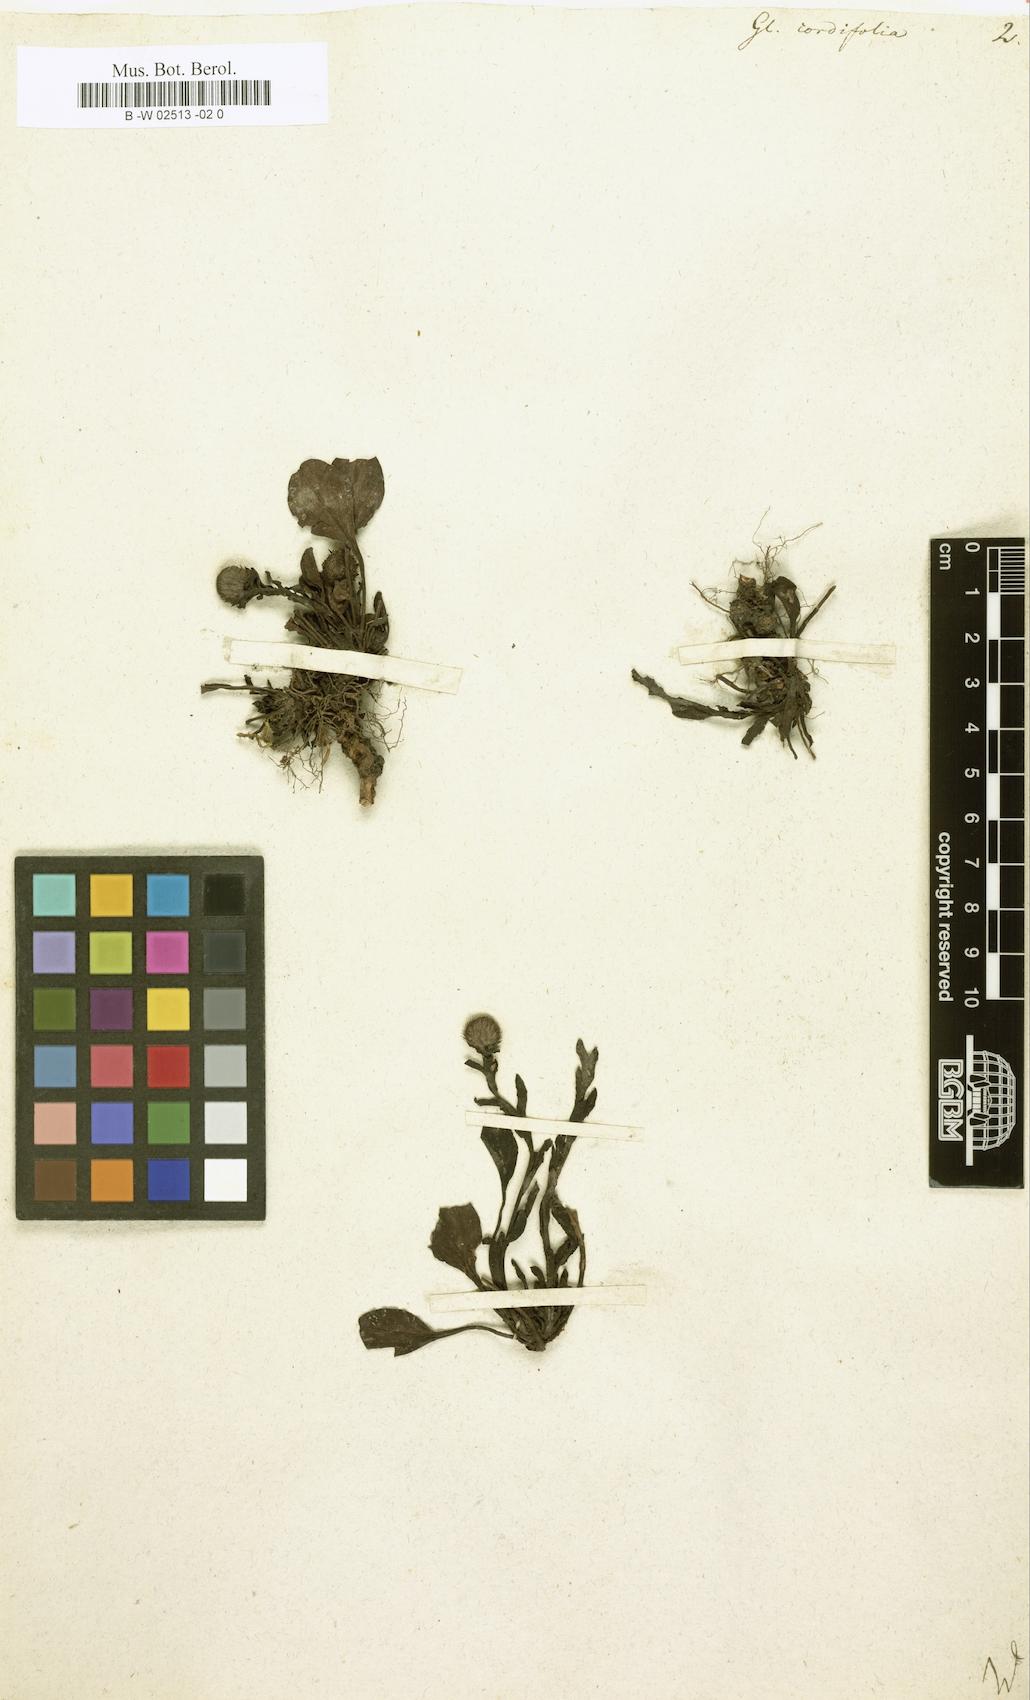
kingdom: Plantae
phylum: Tracheophyta
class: Magnoliopsida
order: Lamiales
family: Plantaginaceae
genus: Globularia
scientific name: Globularia cordifolia
